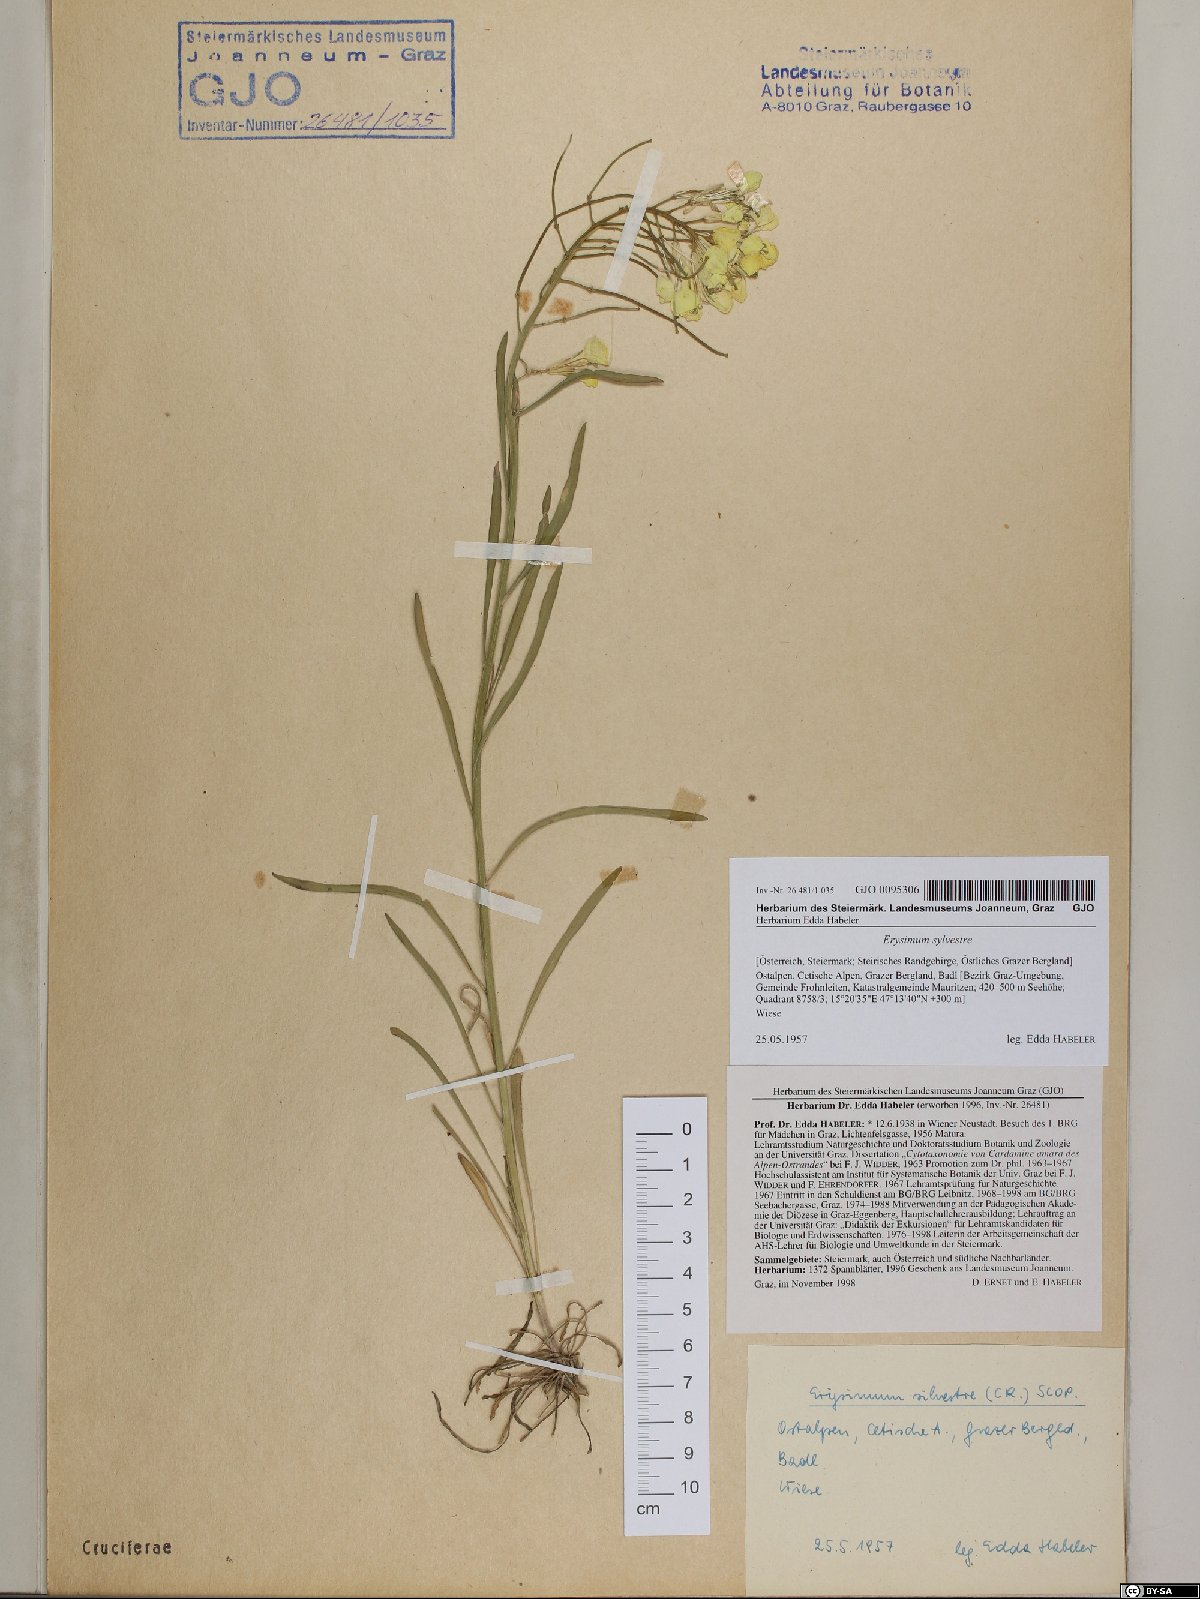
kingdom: Plantae
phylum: Tracheophyta
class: Magnoliopsida
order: Brassicales
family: Brassicaceae
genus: Erysimum
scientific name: Erysimum sylvestre
